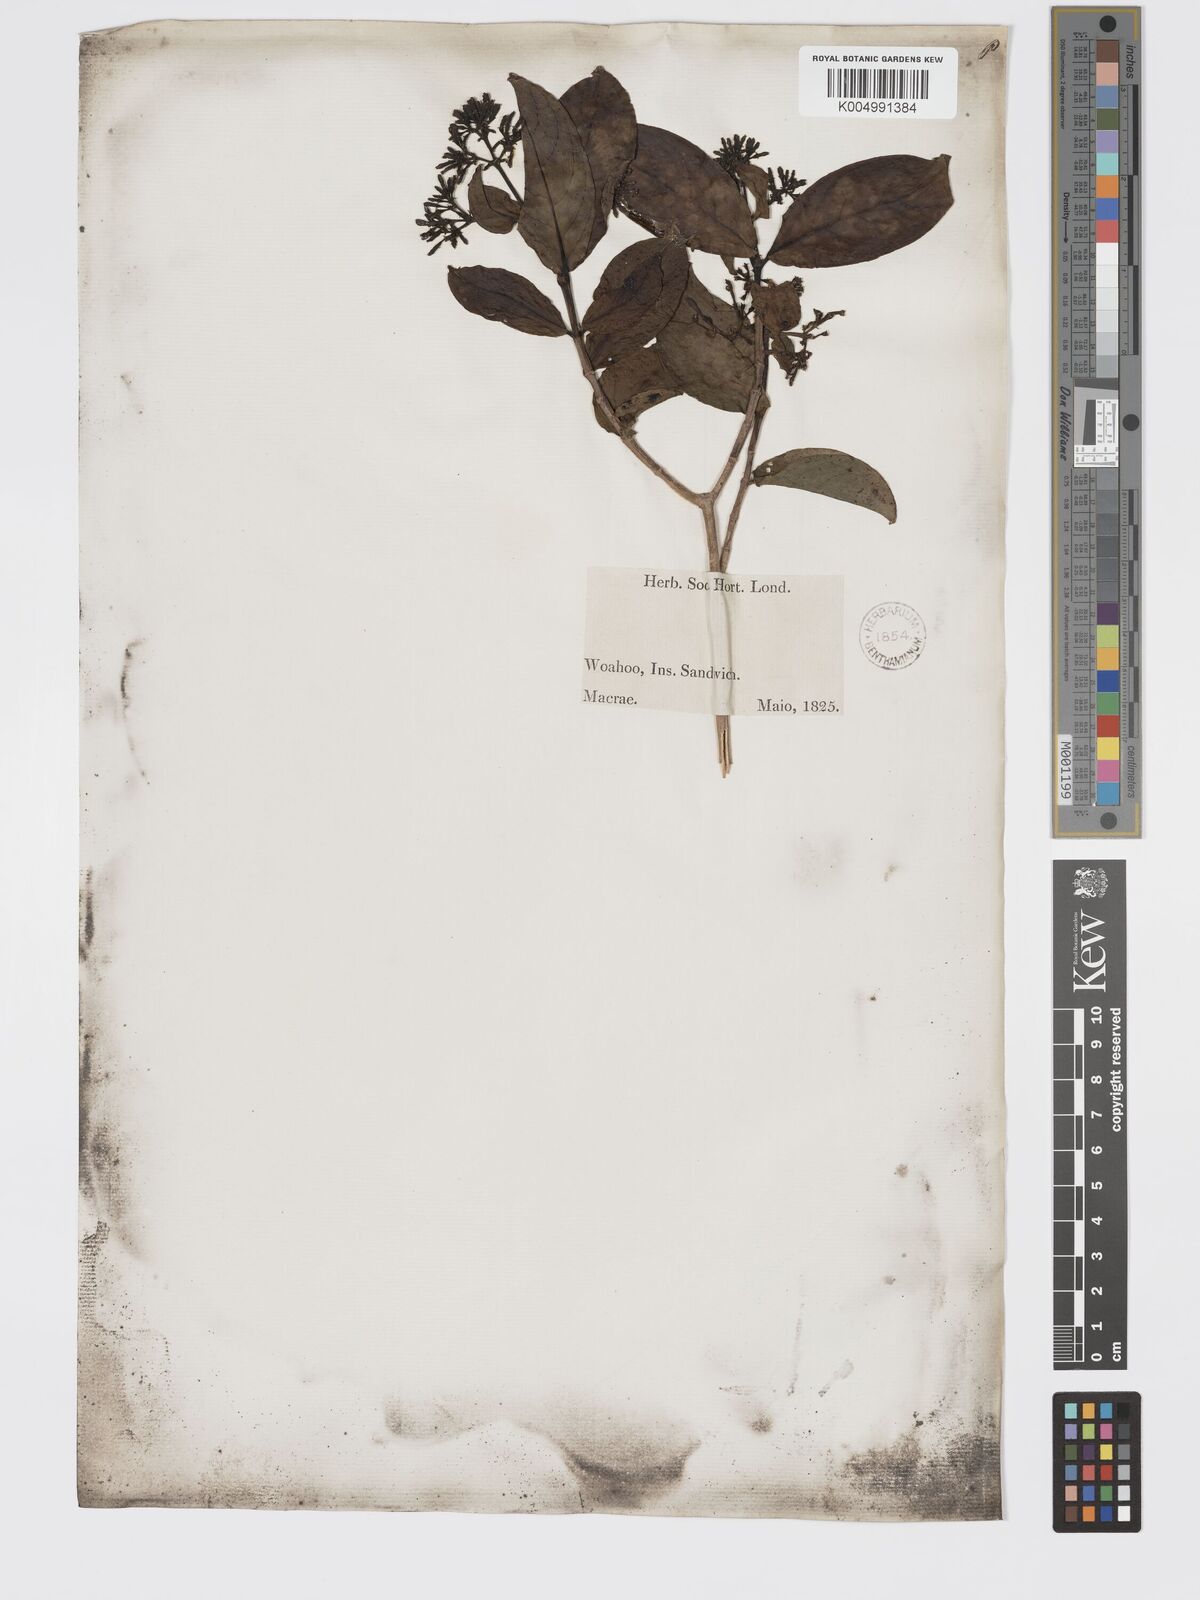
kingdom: Plantae
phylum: Tracheophyta
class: Magnoliopsida
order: Gentianales
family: Rubiaceae
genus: Kadua
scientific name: Kadua affinis
